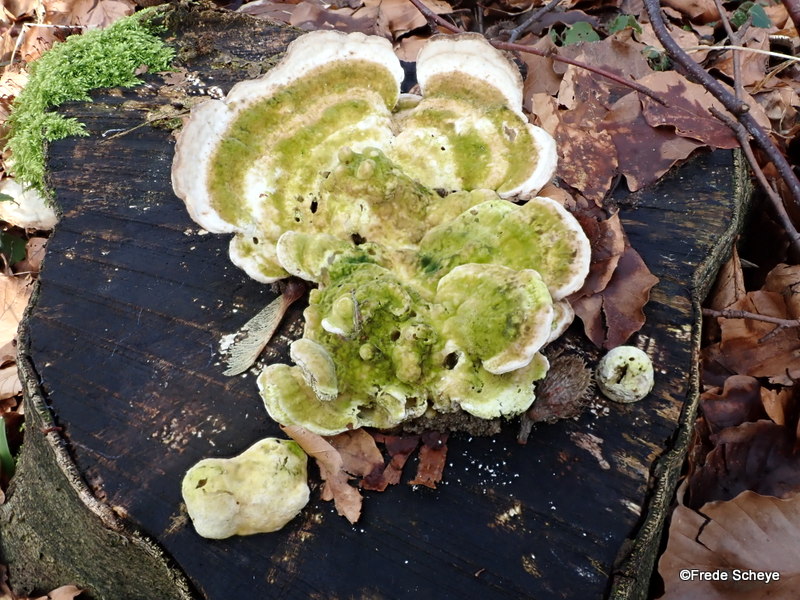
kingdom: Fungi
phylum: Basidiomycota
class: Agaricomycetes
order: Polyporales
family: Polyporaceae
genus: Trametes
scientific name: Trametes gibbosa
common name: puklet læderporesvamp
